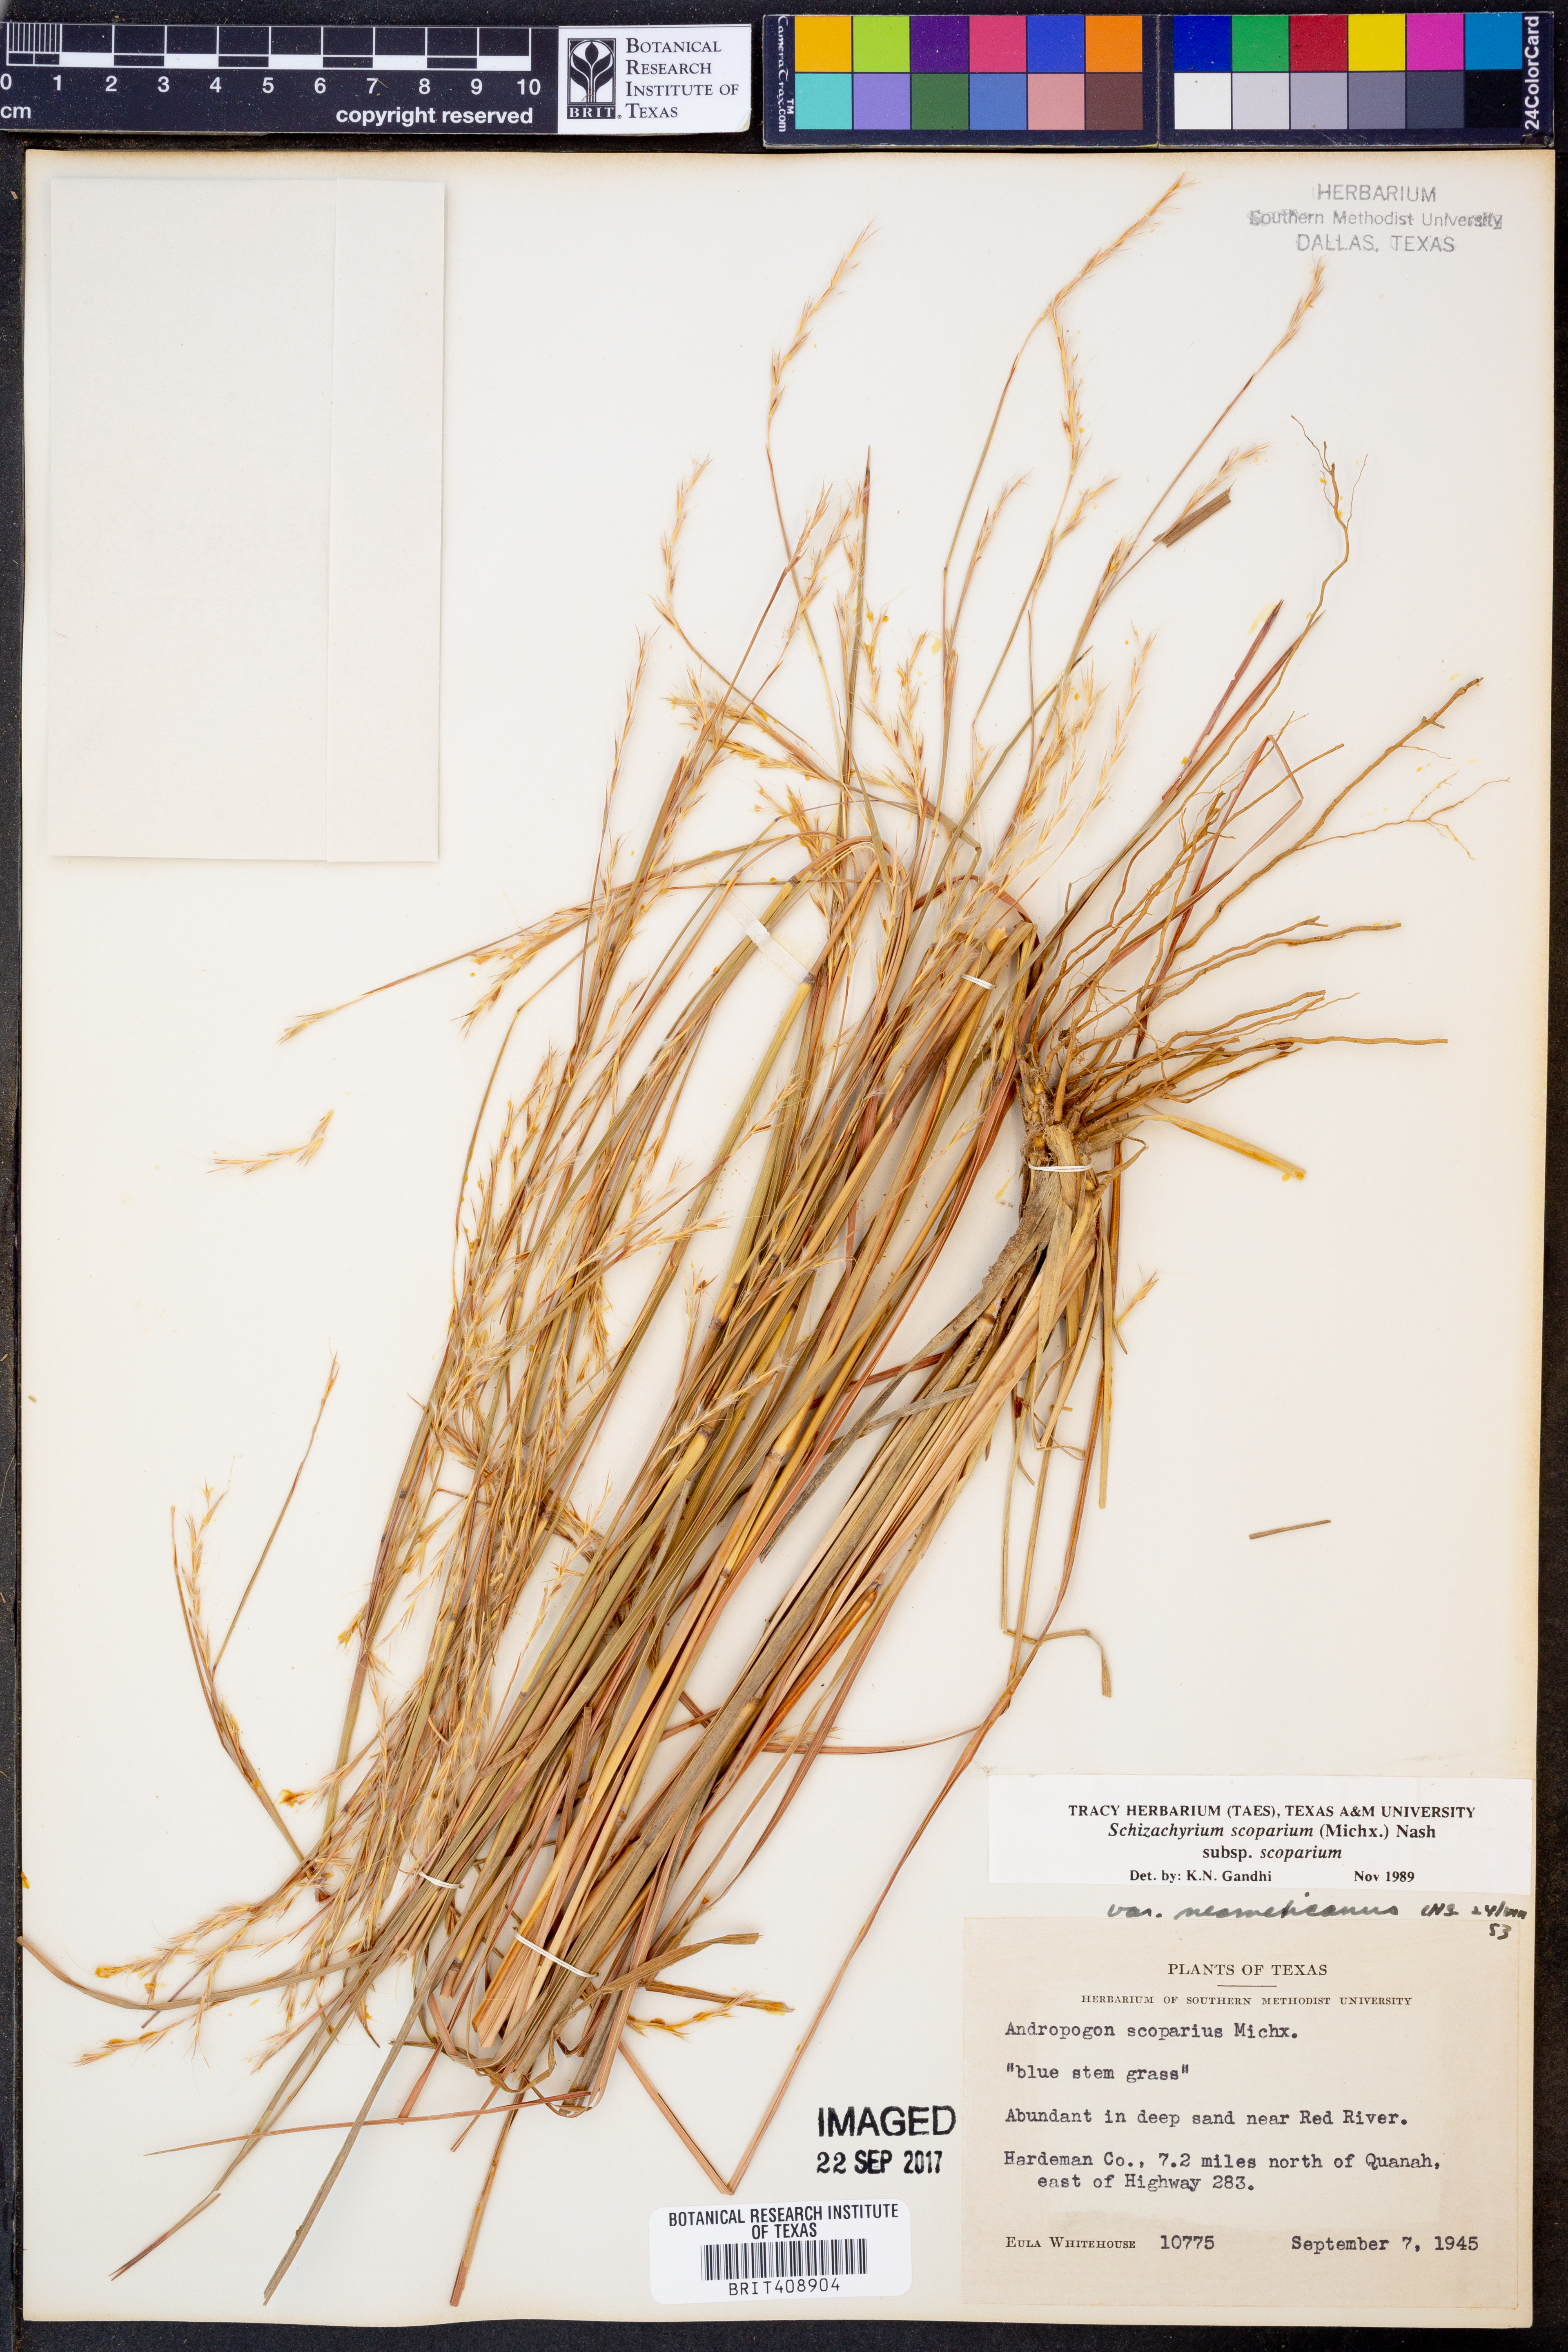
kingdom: Plantae
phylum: Tracheophyta
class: Liliopsida
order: Poales
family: Poaceae
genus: Schizachyrium
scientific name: Schizachyrium scoparium
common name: Little bluestem
